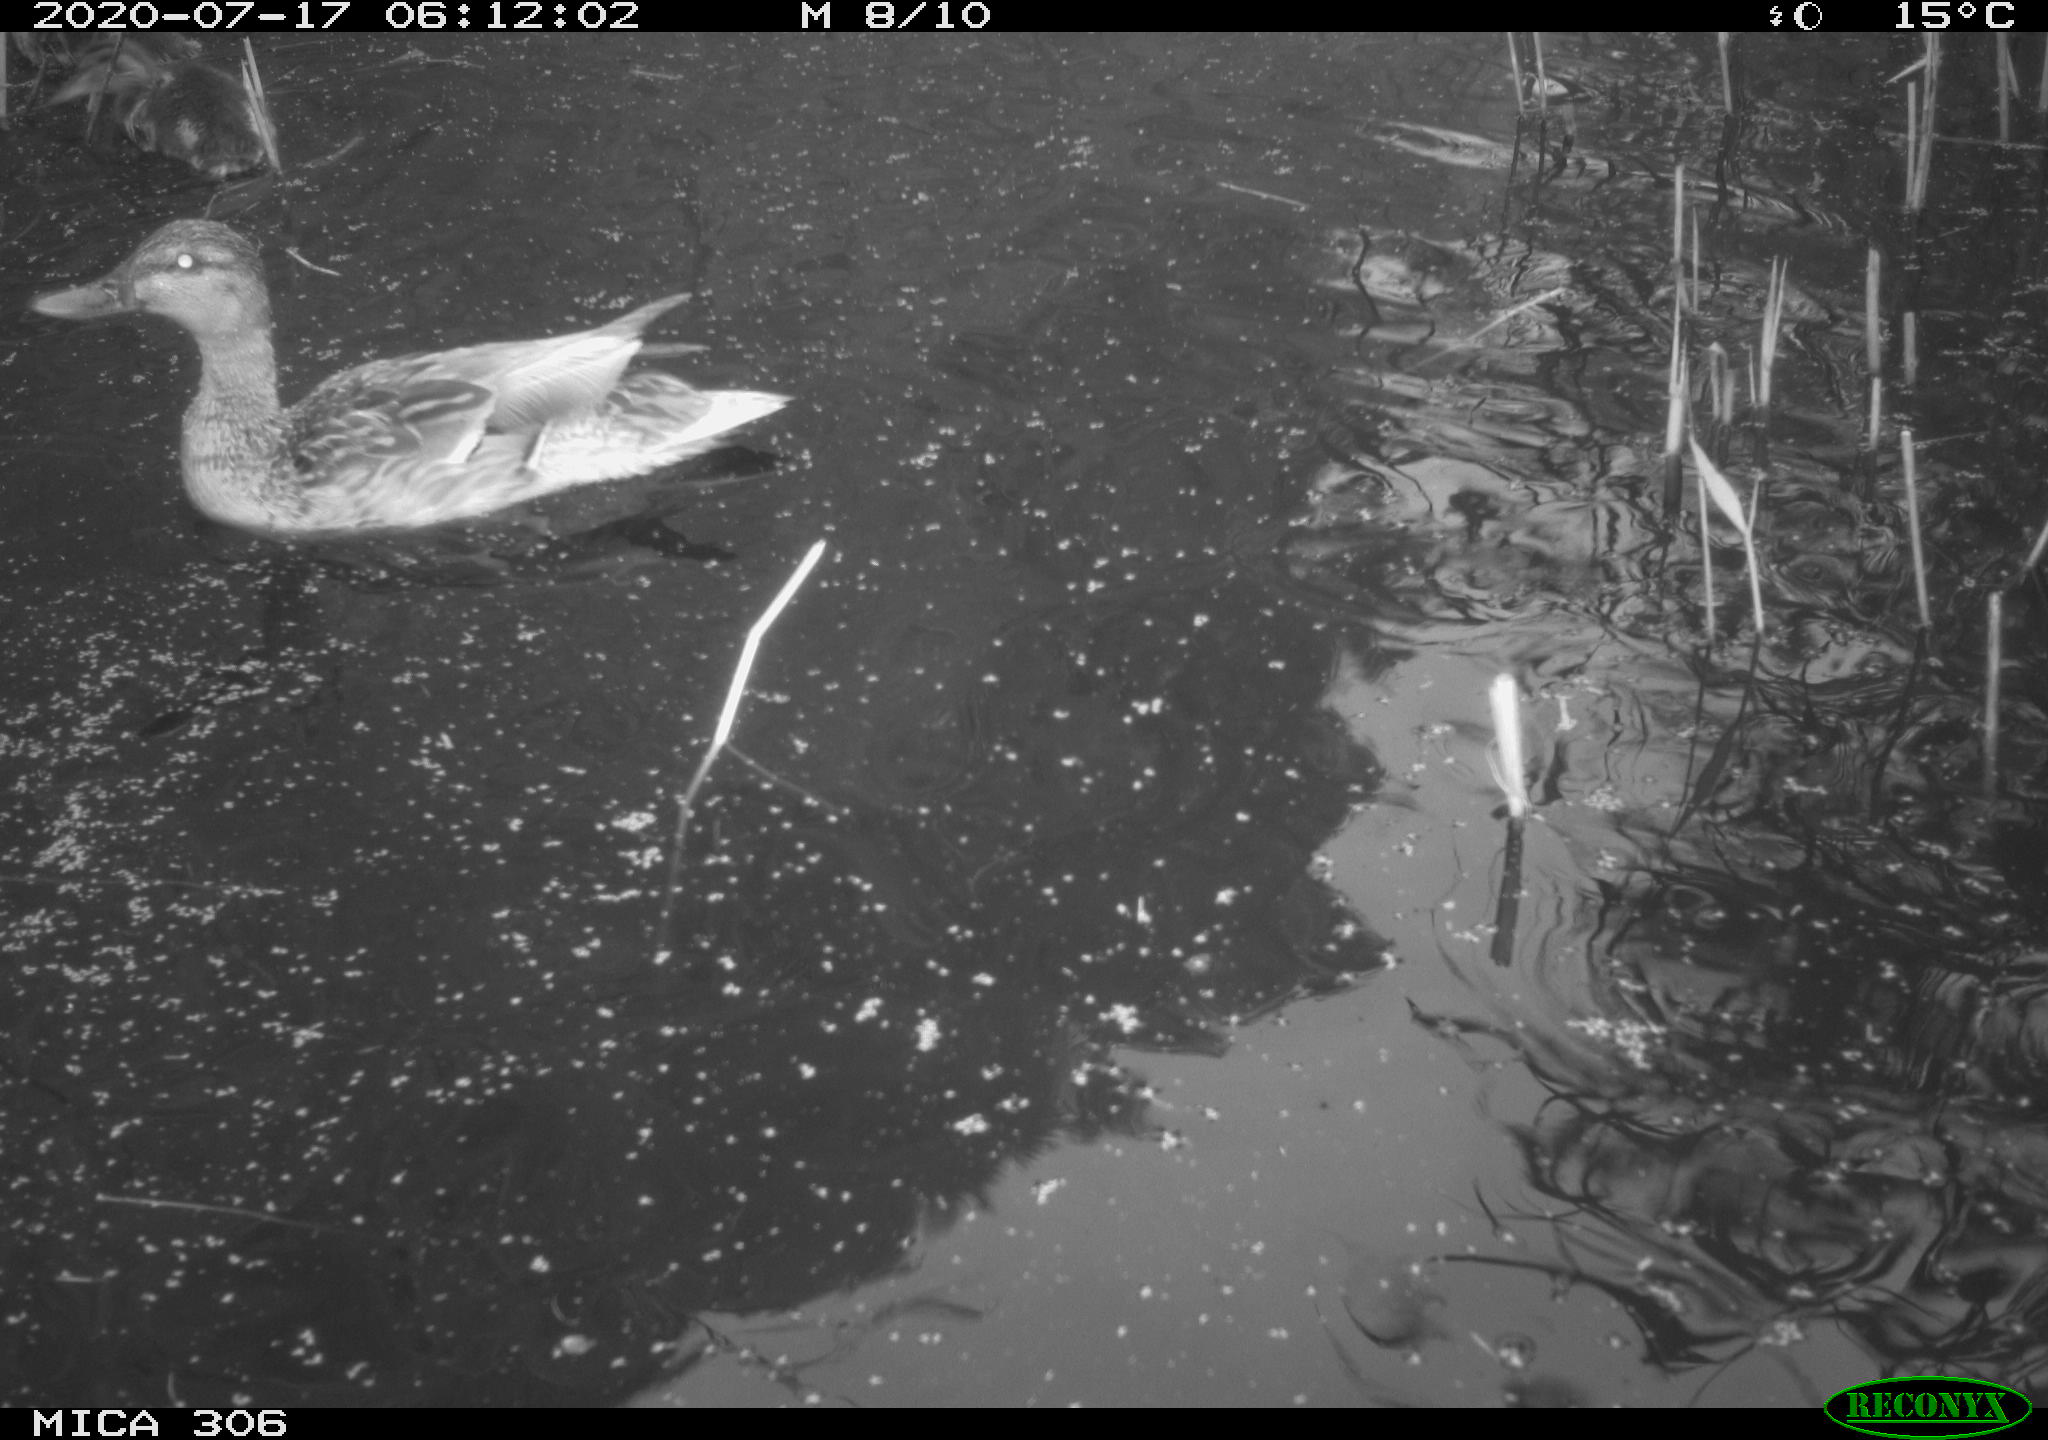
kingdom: Animalia
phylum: Chordata
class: Aves
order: Anseriformes
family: Anatidae
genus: Anas
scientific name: Anas platyrhynchos
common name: Mallard
